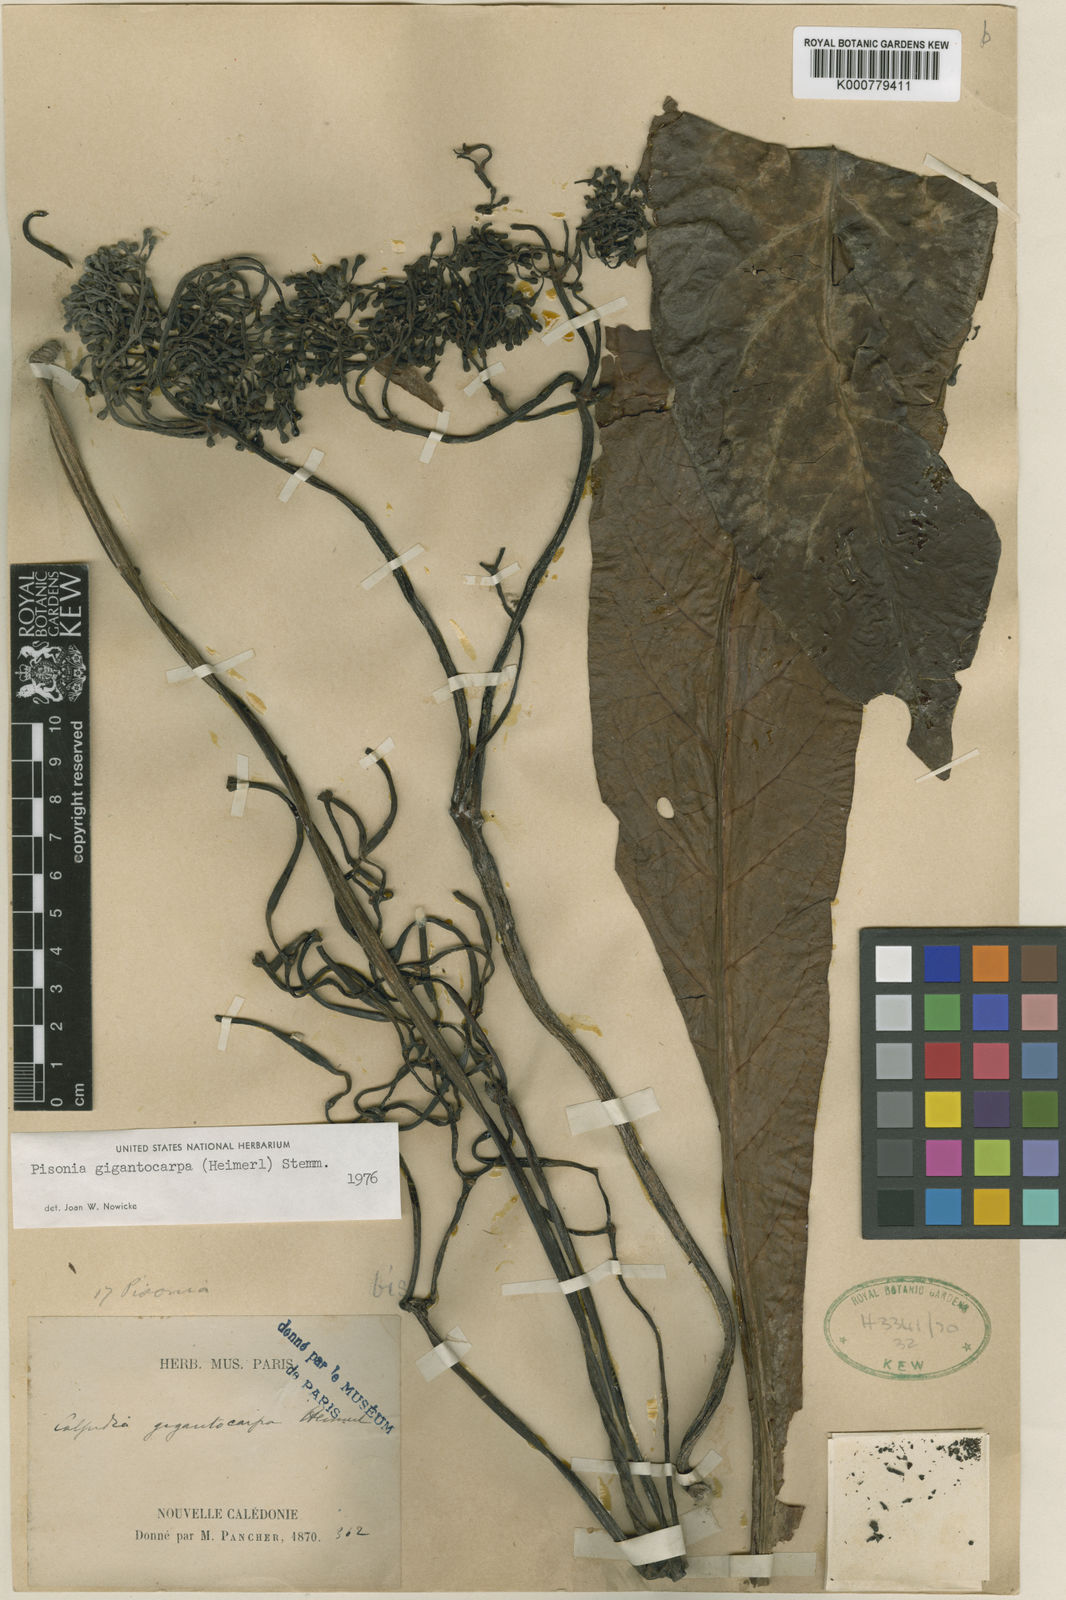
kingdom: Plantae
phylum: Tracheophyta
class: Magnoliopsida
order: Caryophyllales
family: Nyctaginaceae
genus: Ceodes
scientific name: Ceodes gigantocarpa
